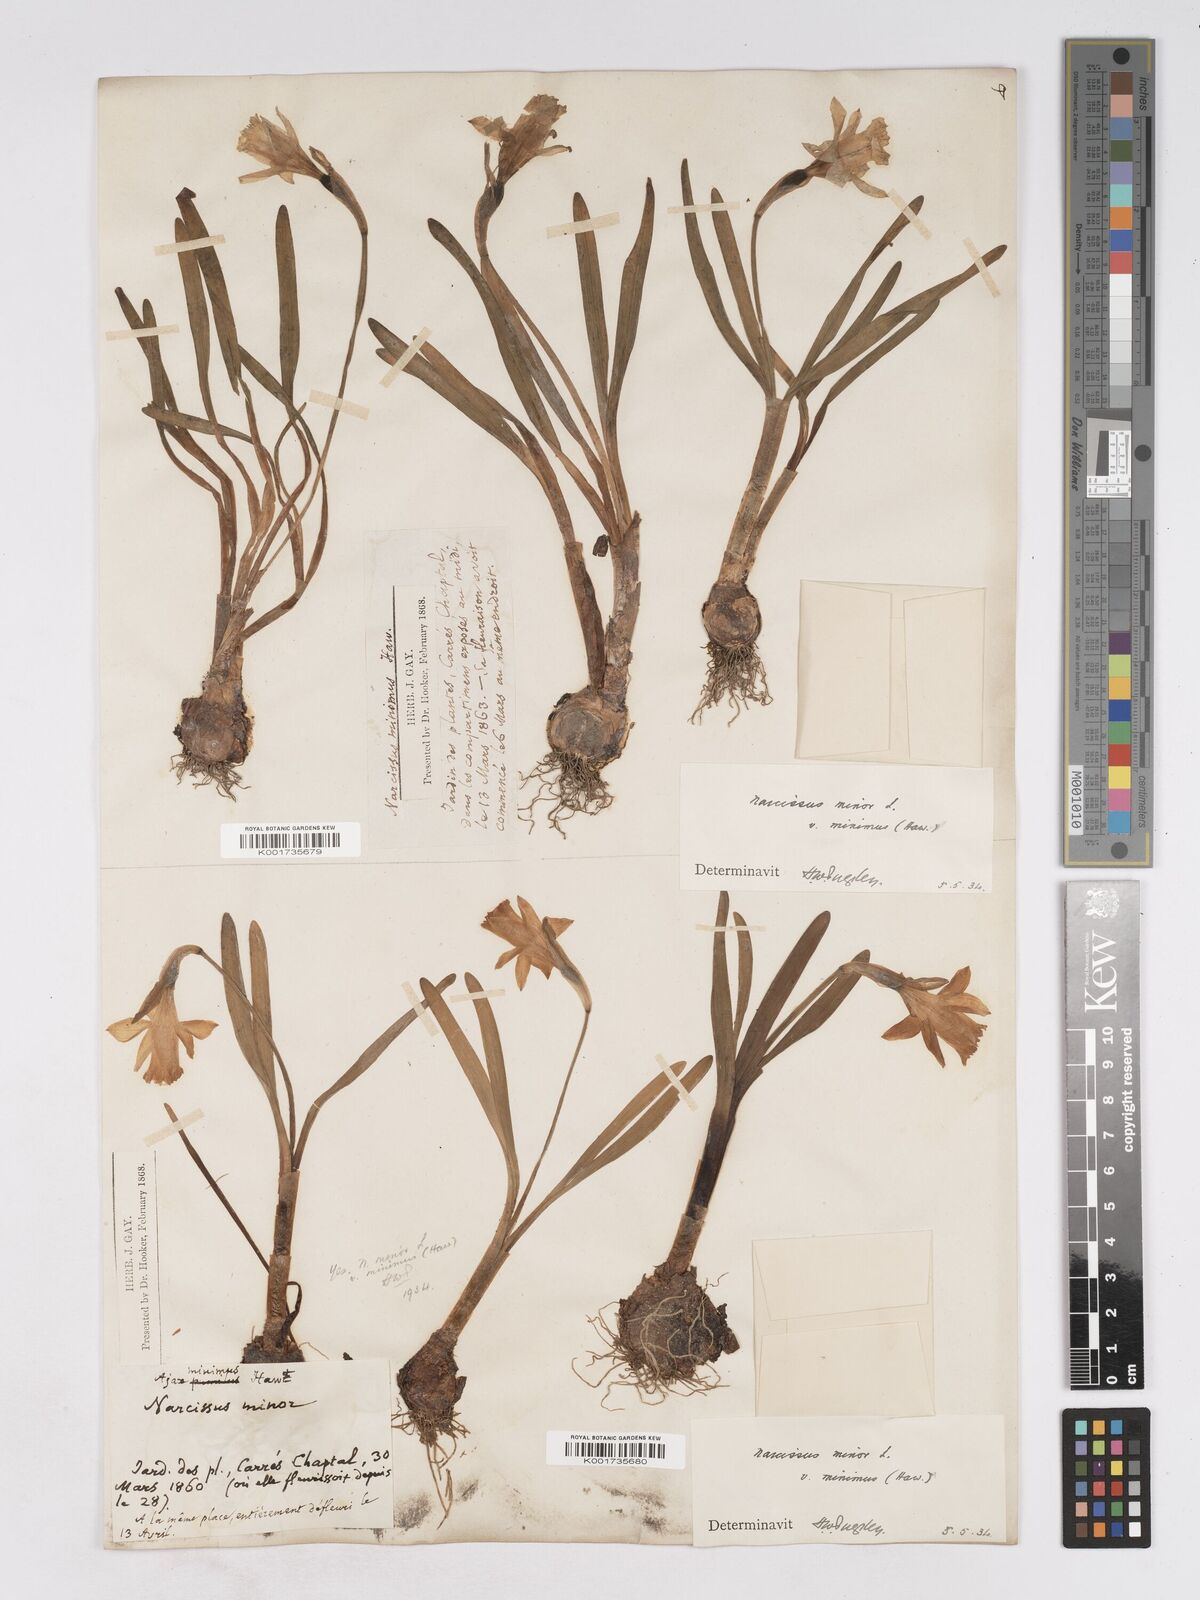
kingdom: Plantae
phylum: Tracheophyta
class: Liliopsida
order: Asparagales
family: Amaryllidaceae
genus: Narcissus
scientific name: Narcissus minor
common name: Lesser daffodil
